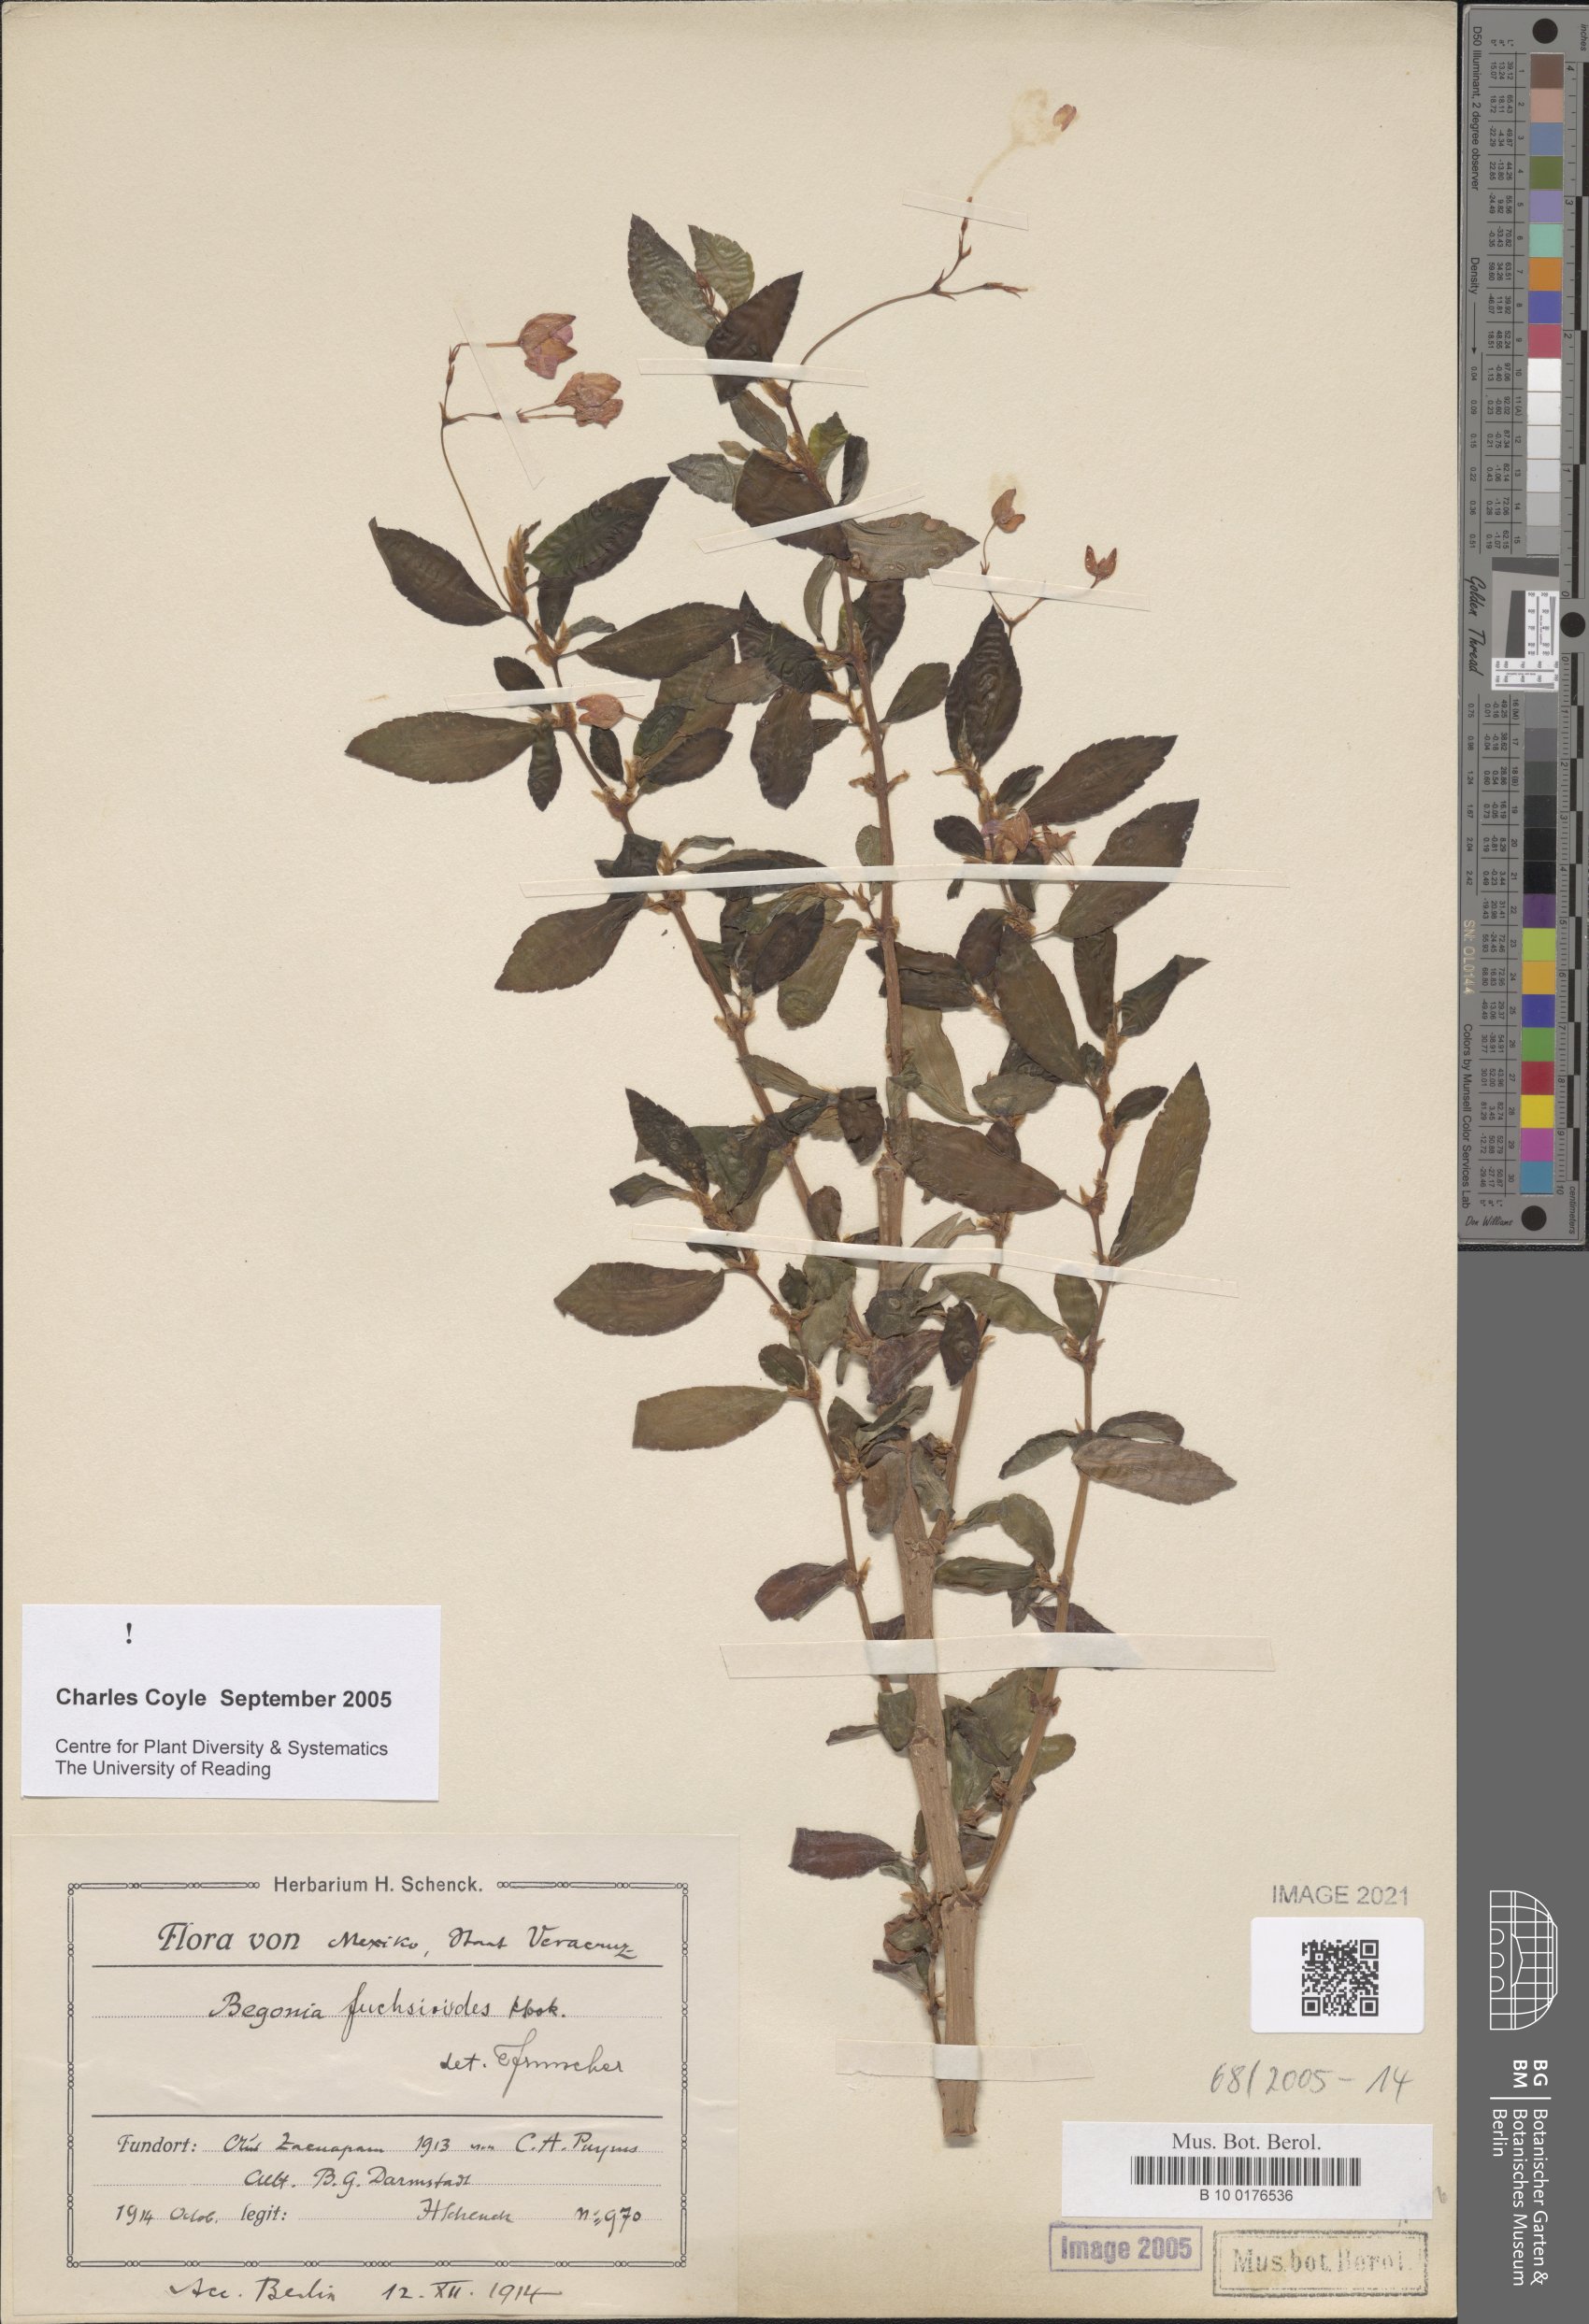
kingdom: Plantae
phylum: Tracheophyta
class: Magnoliopsida
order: Cucurbitales
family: Begoniaceae
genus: Begonia
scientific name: Begonia fuchsioides
